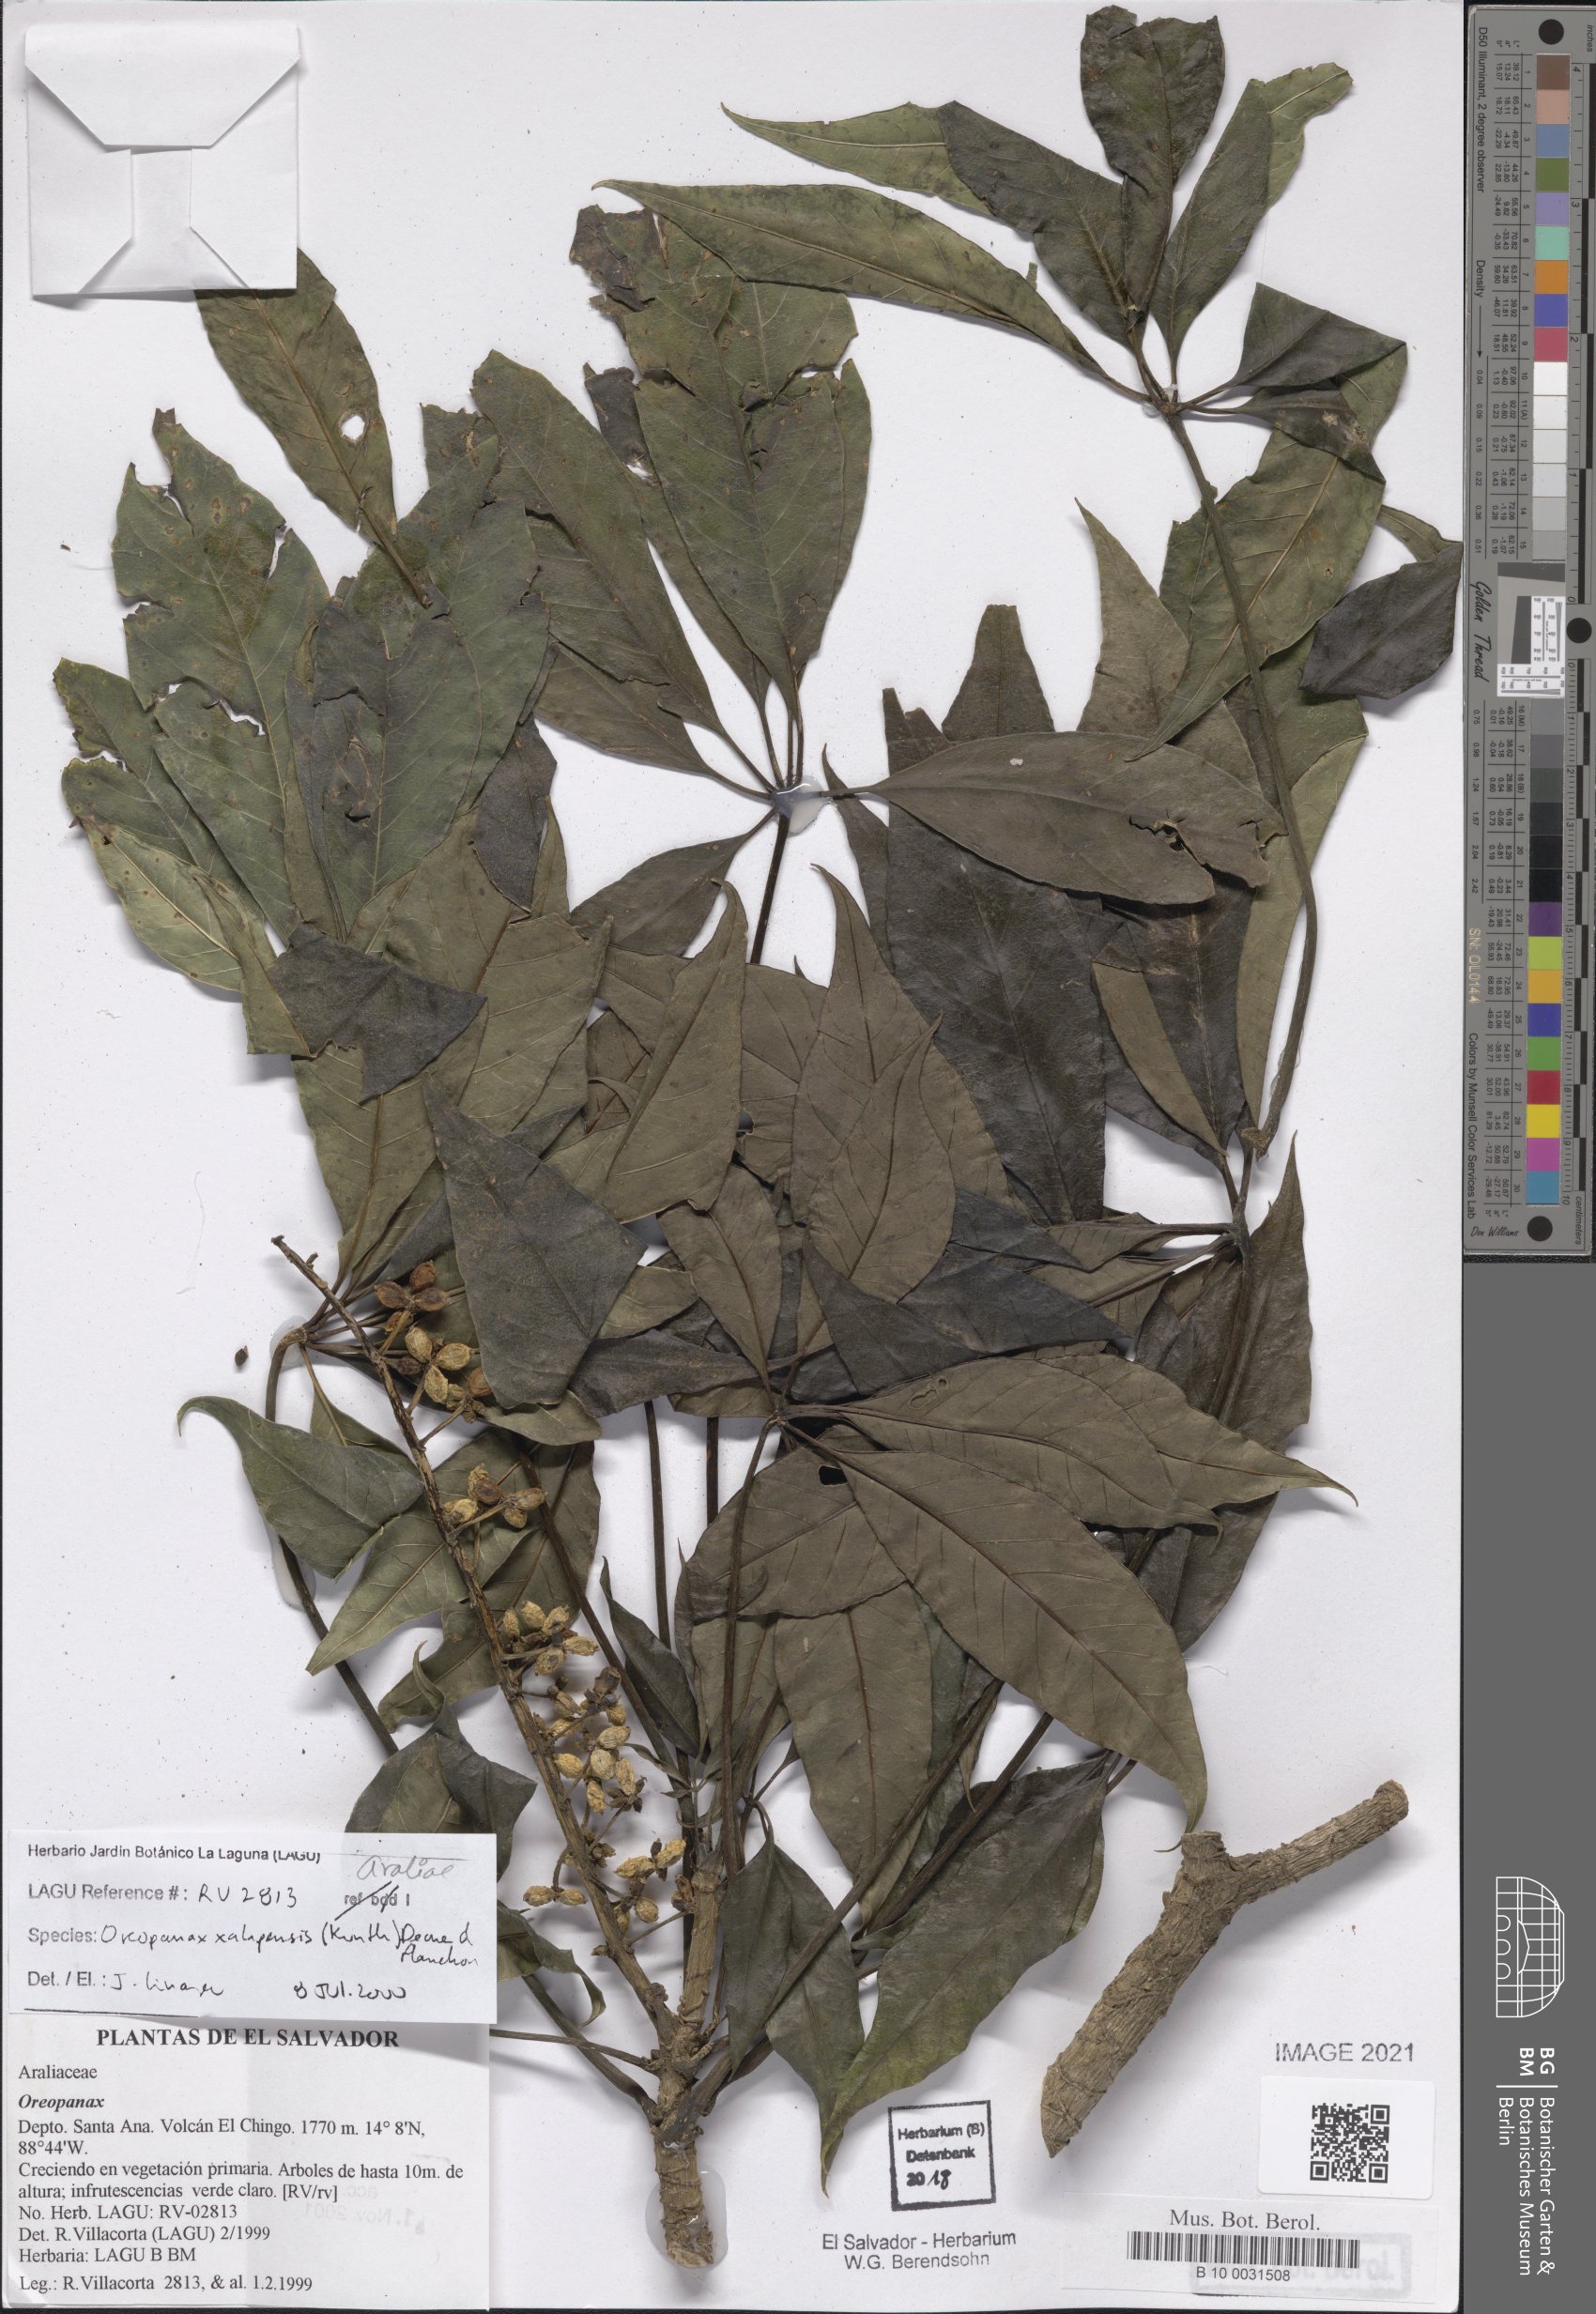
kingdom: Plantae
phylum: Tracheophyta
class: Magnoliopsida
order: Apiales
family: Araliaceae
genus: Oreopanax
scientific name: Oreopanax xalapensis
